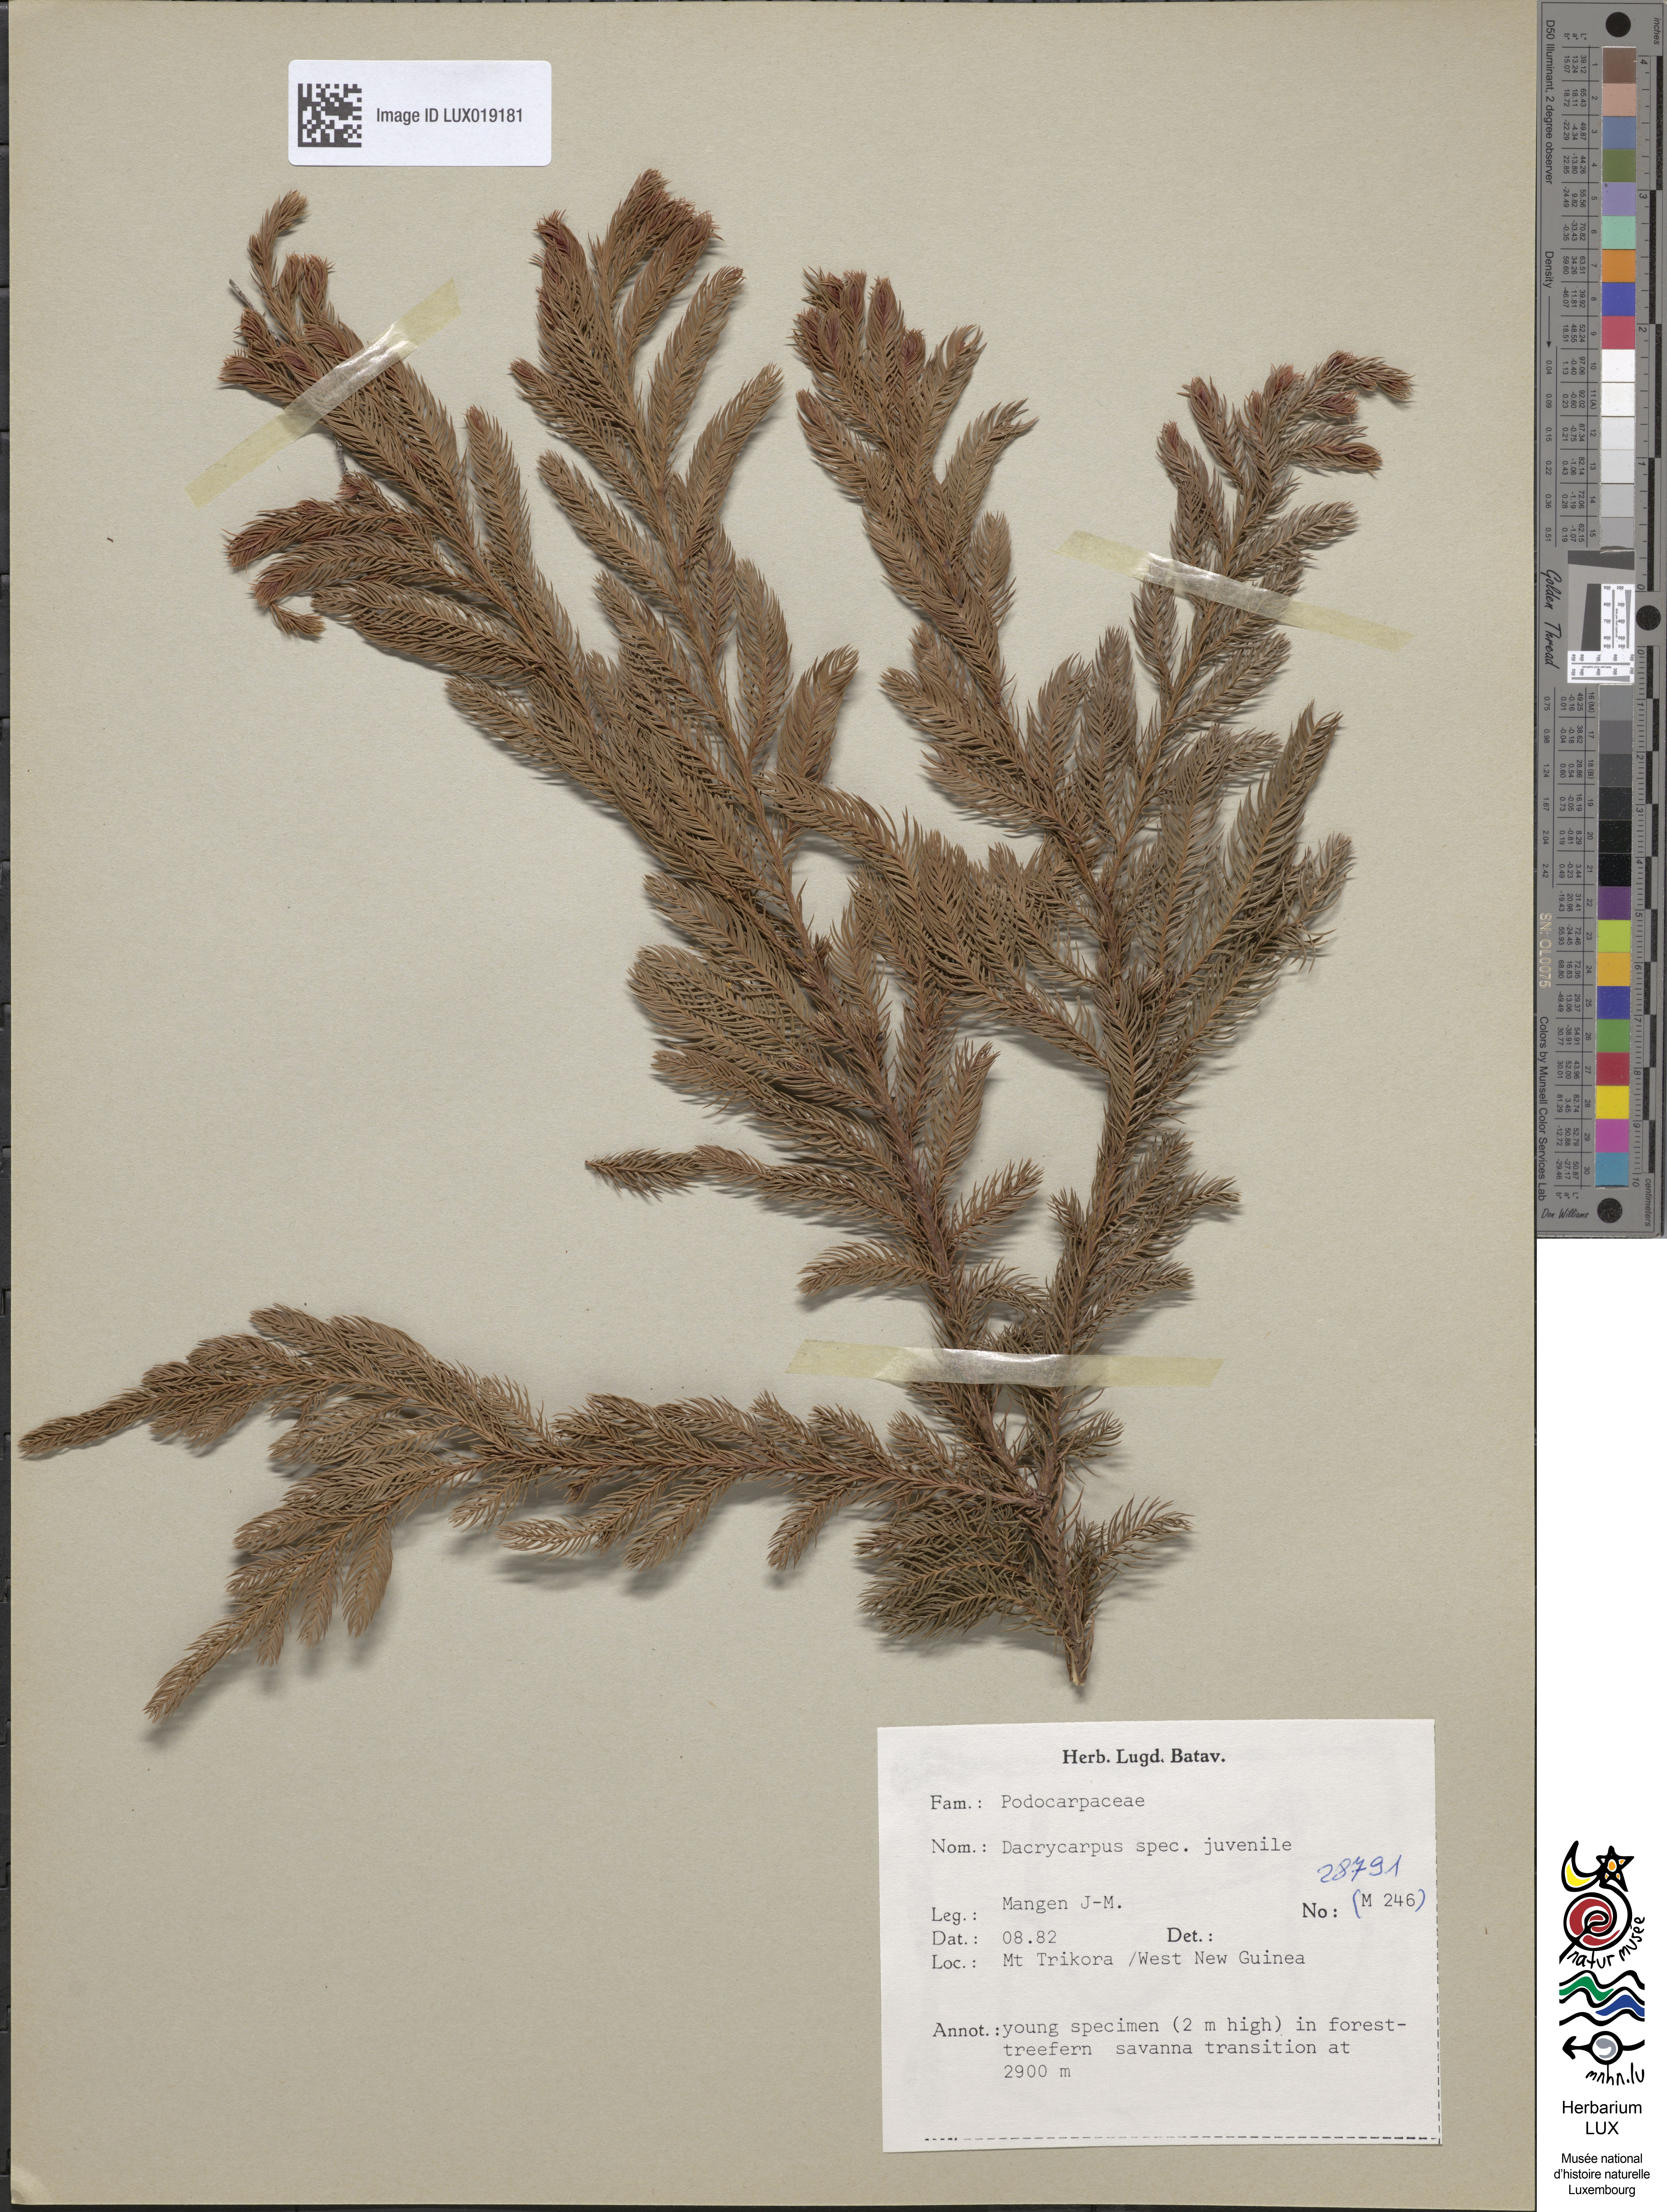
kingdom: Plantae
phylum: Tracheophyta
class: Pinopsida
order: Pinales
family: Podocarpaceae
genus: Dacrycarpus
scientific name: Dacrycarpus
